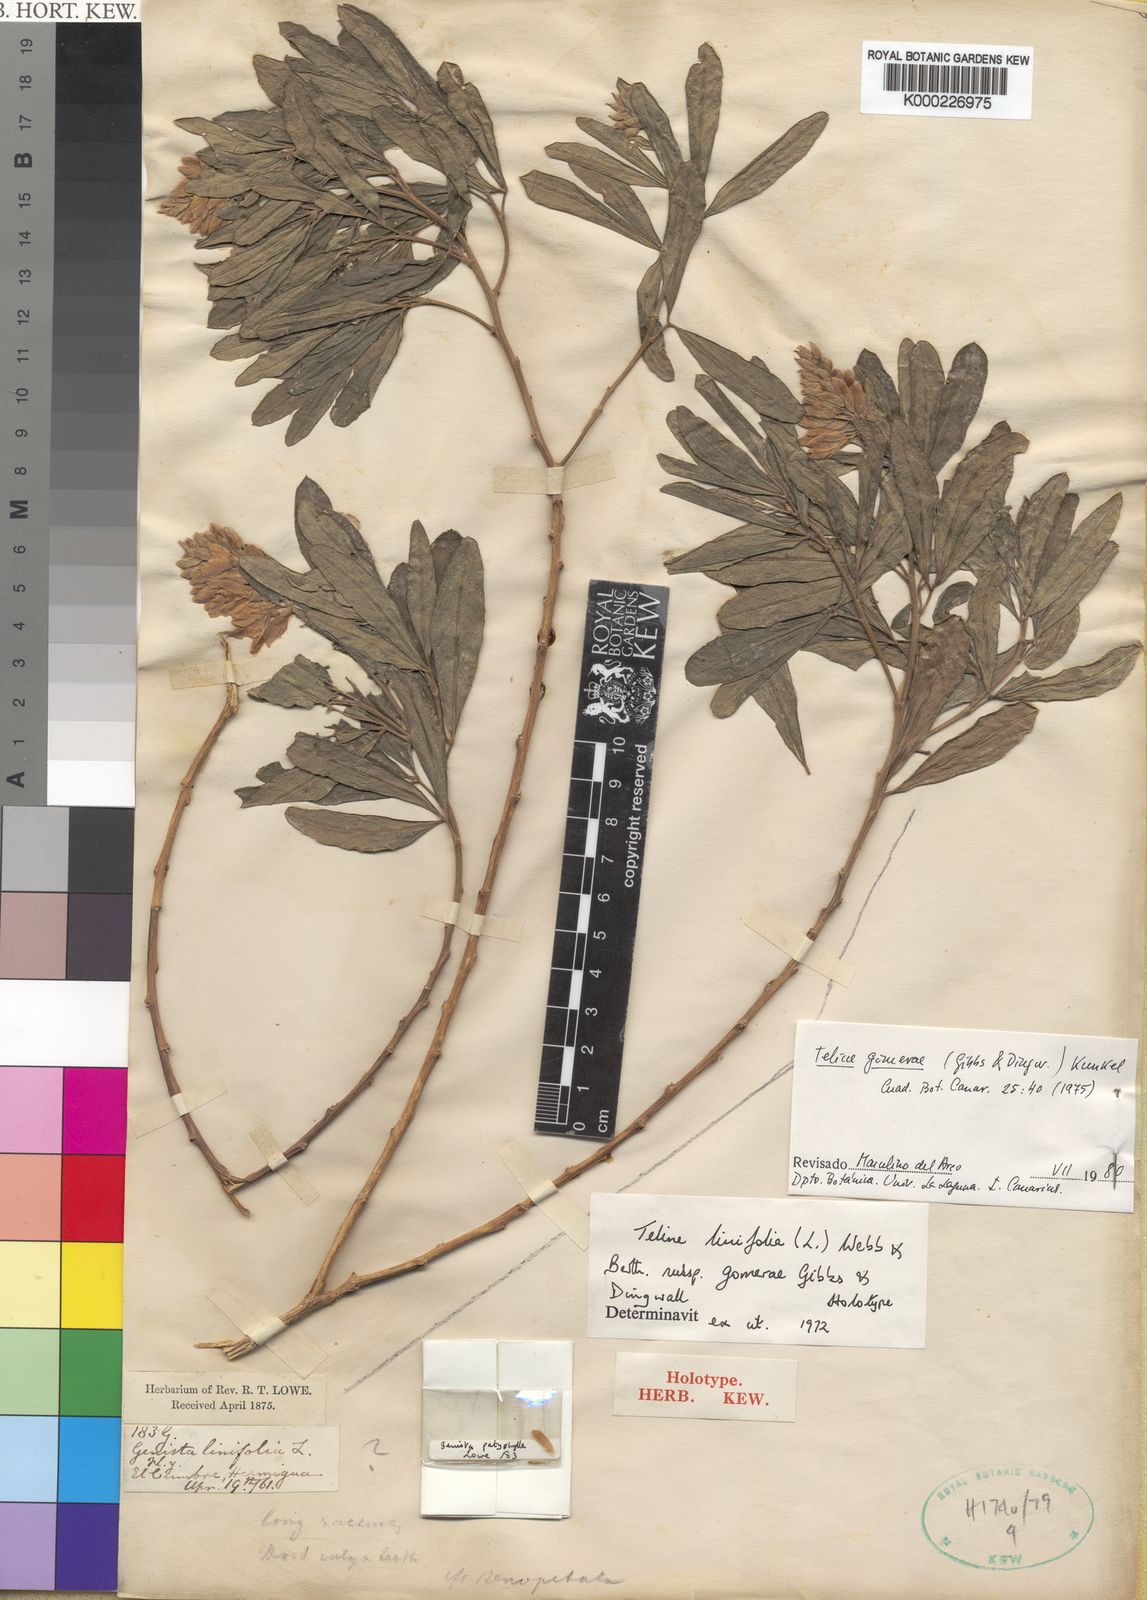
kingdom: Plantae
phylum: Tracheophyta
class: Magnoliopsida
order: Fabales
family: Fabaceae
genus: Genista
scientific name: Genista linifolia
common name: Mediterranean broom
